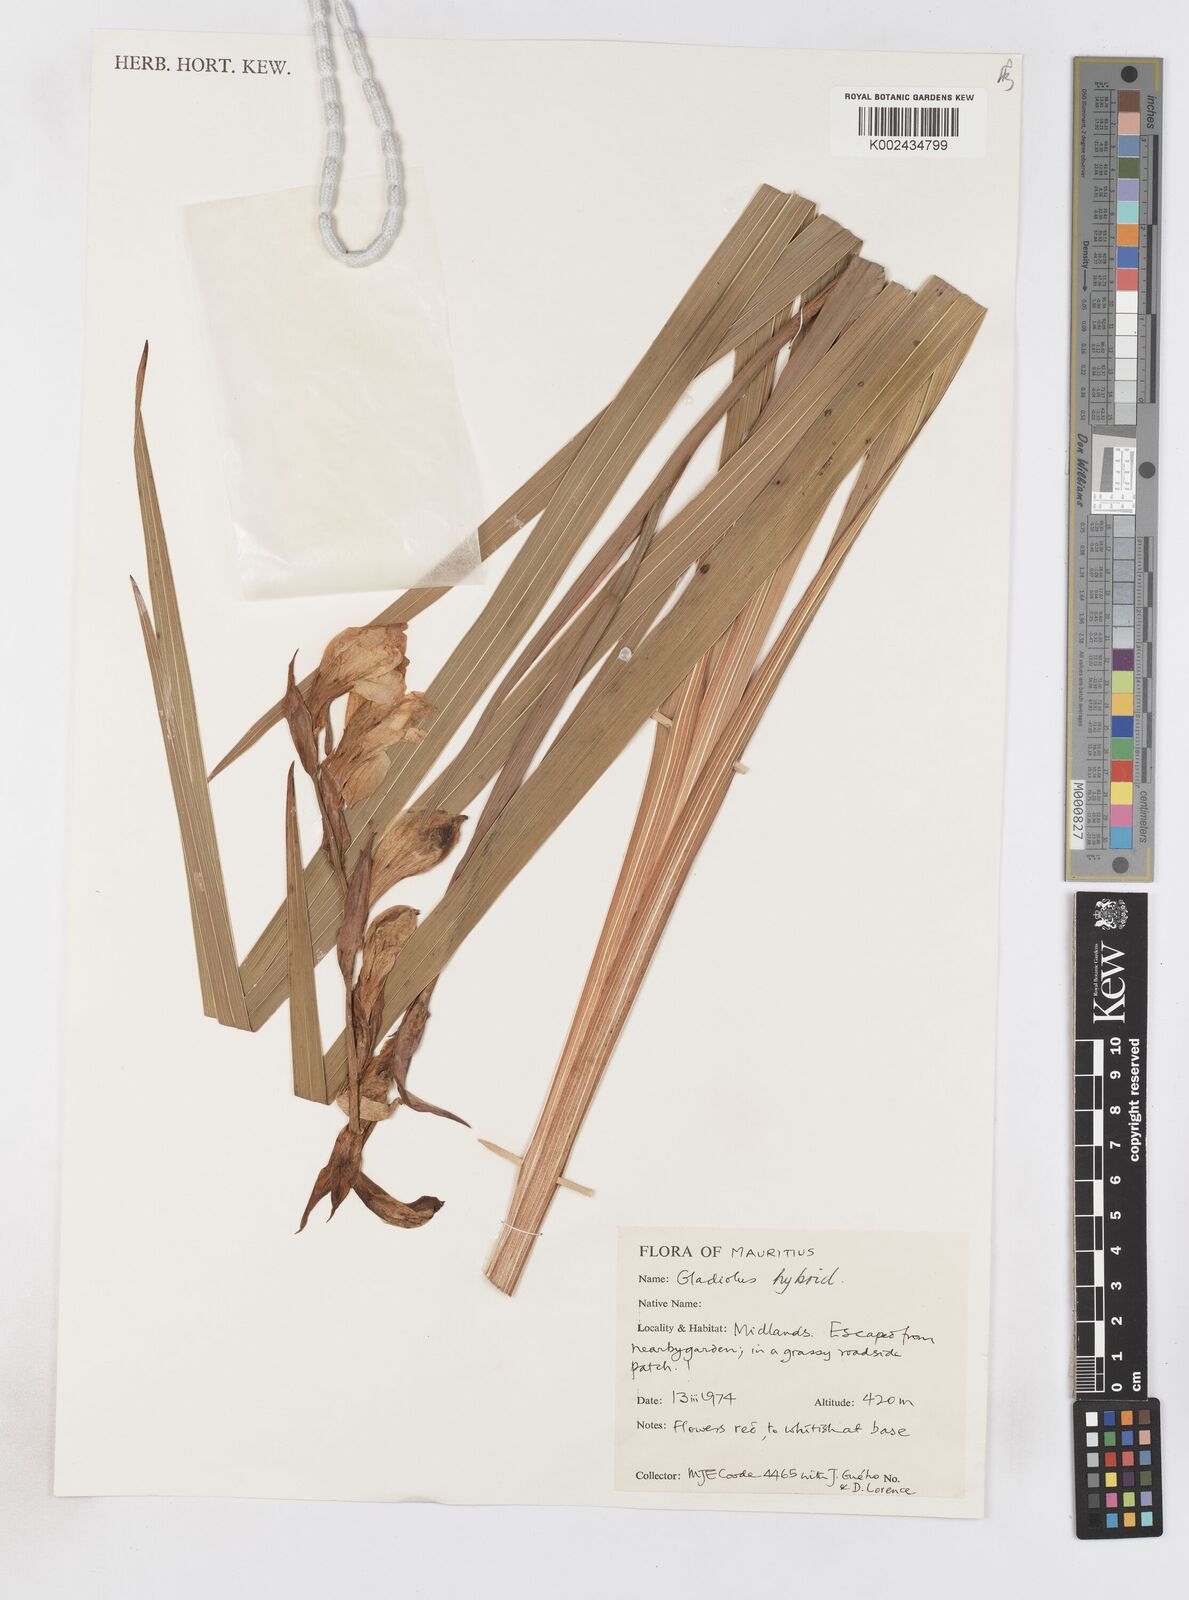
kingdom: Plantae
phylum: Tracheophyta
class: Liliopsida
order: Asparagales
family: Iridaceae
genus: Gladiolus
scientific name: Gladiolus
